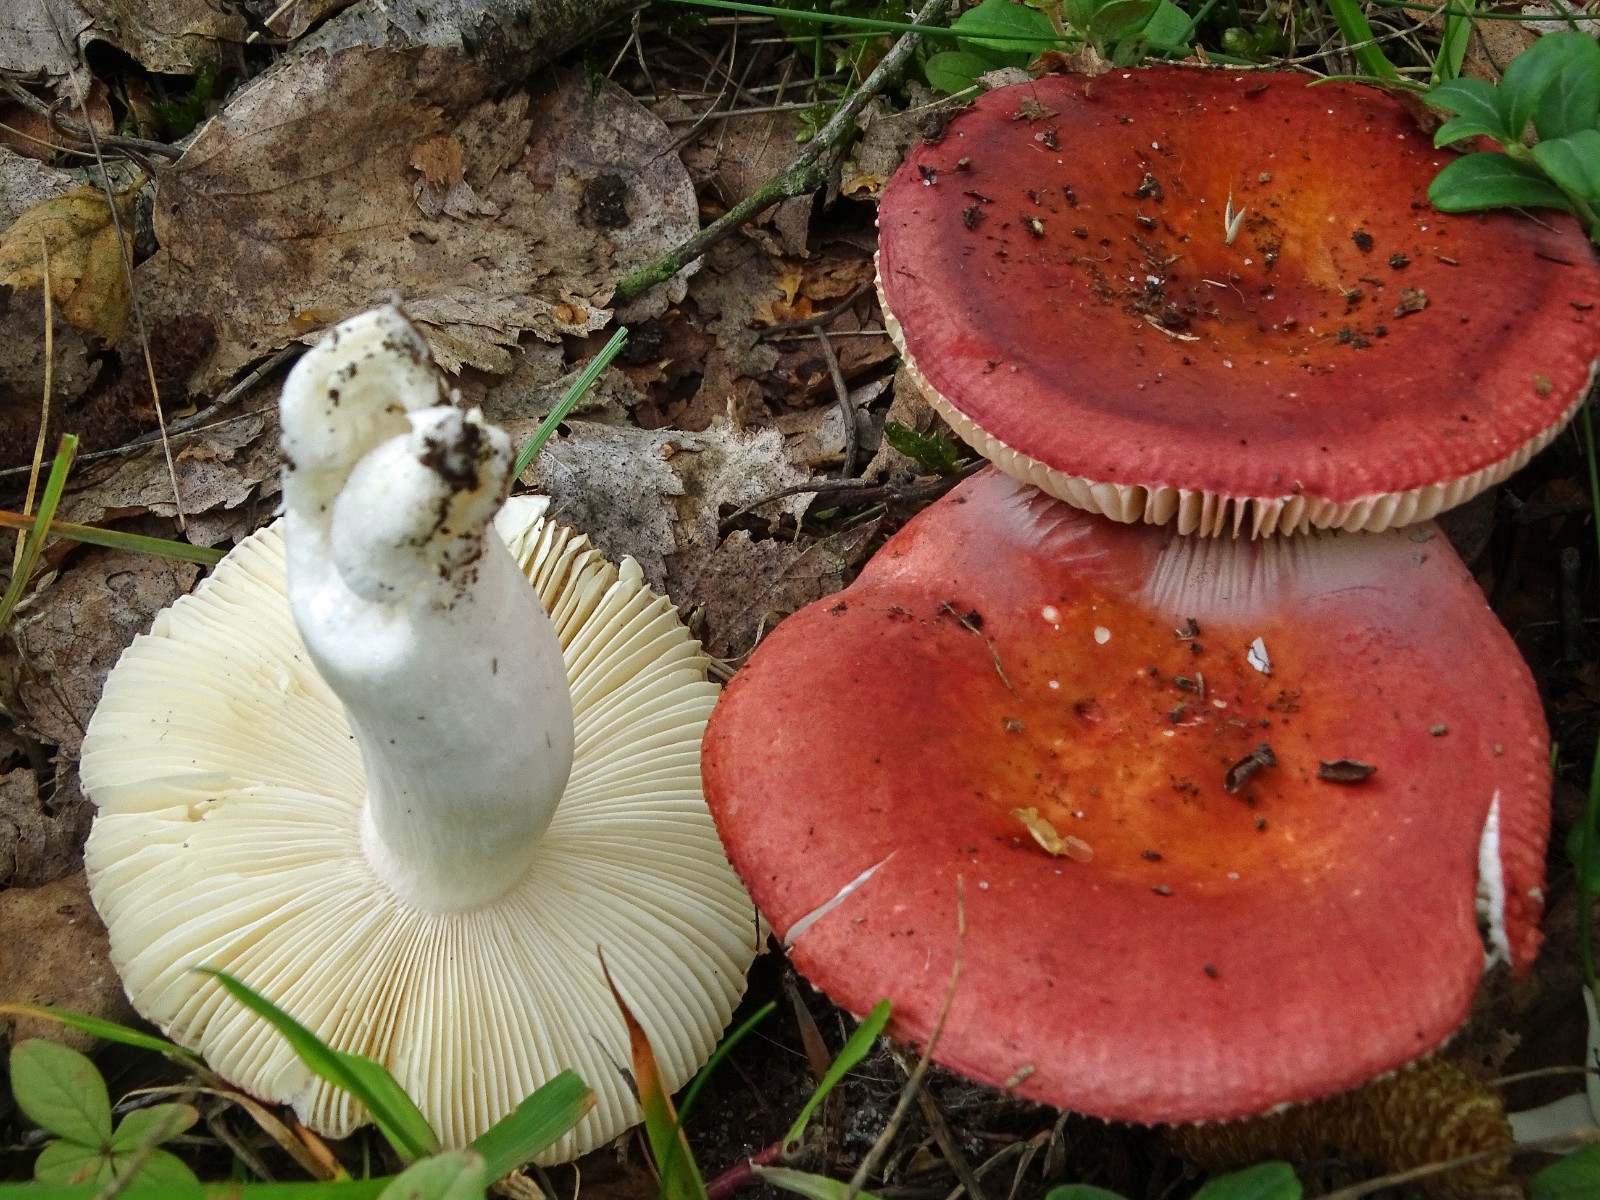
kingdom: Fungi
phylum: Basidiomycota
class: Agaricomycetes
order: Russulales
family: Russulaceae
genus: Russula
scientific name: Russula velenovskyi
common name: orangerød skørhat
